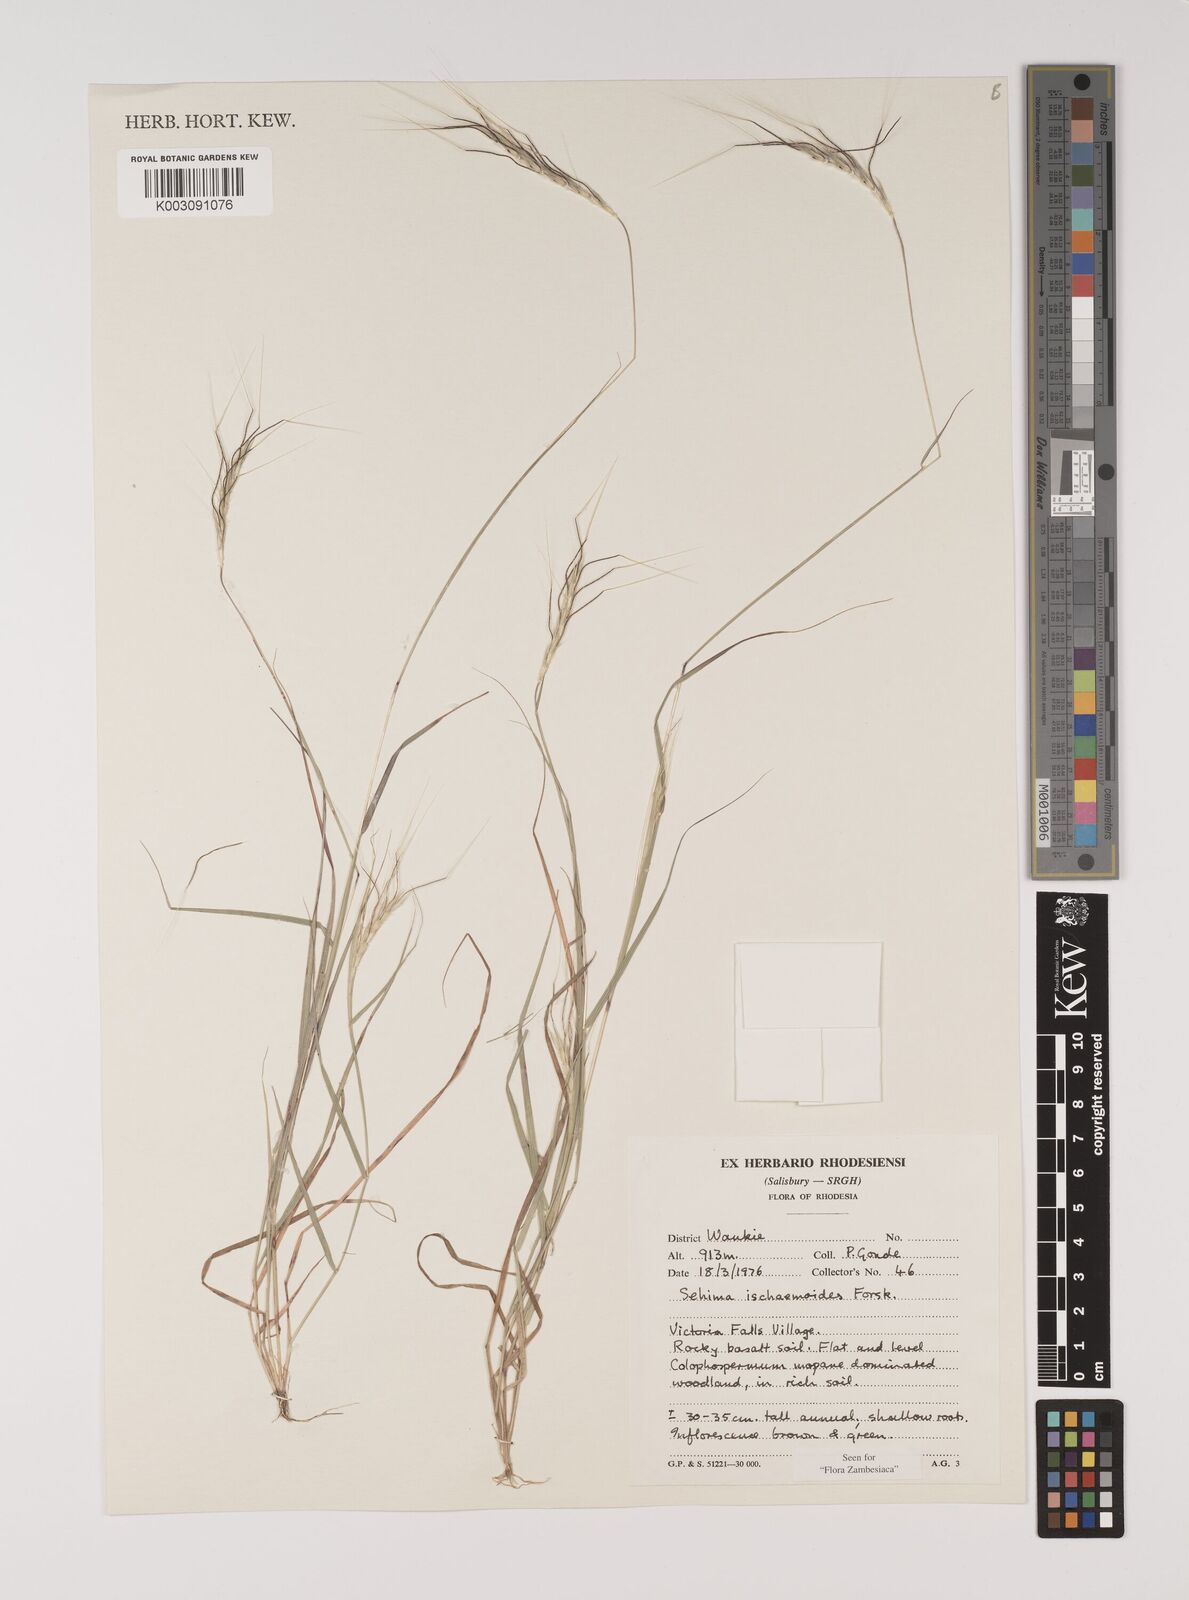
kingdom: Plantae
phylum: Tracheophyta
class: Liliopsida
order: Poales
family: Poaceae
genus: Sehima
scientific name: Sehima ischaemoides
